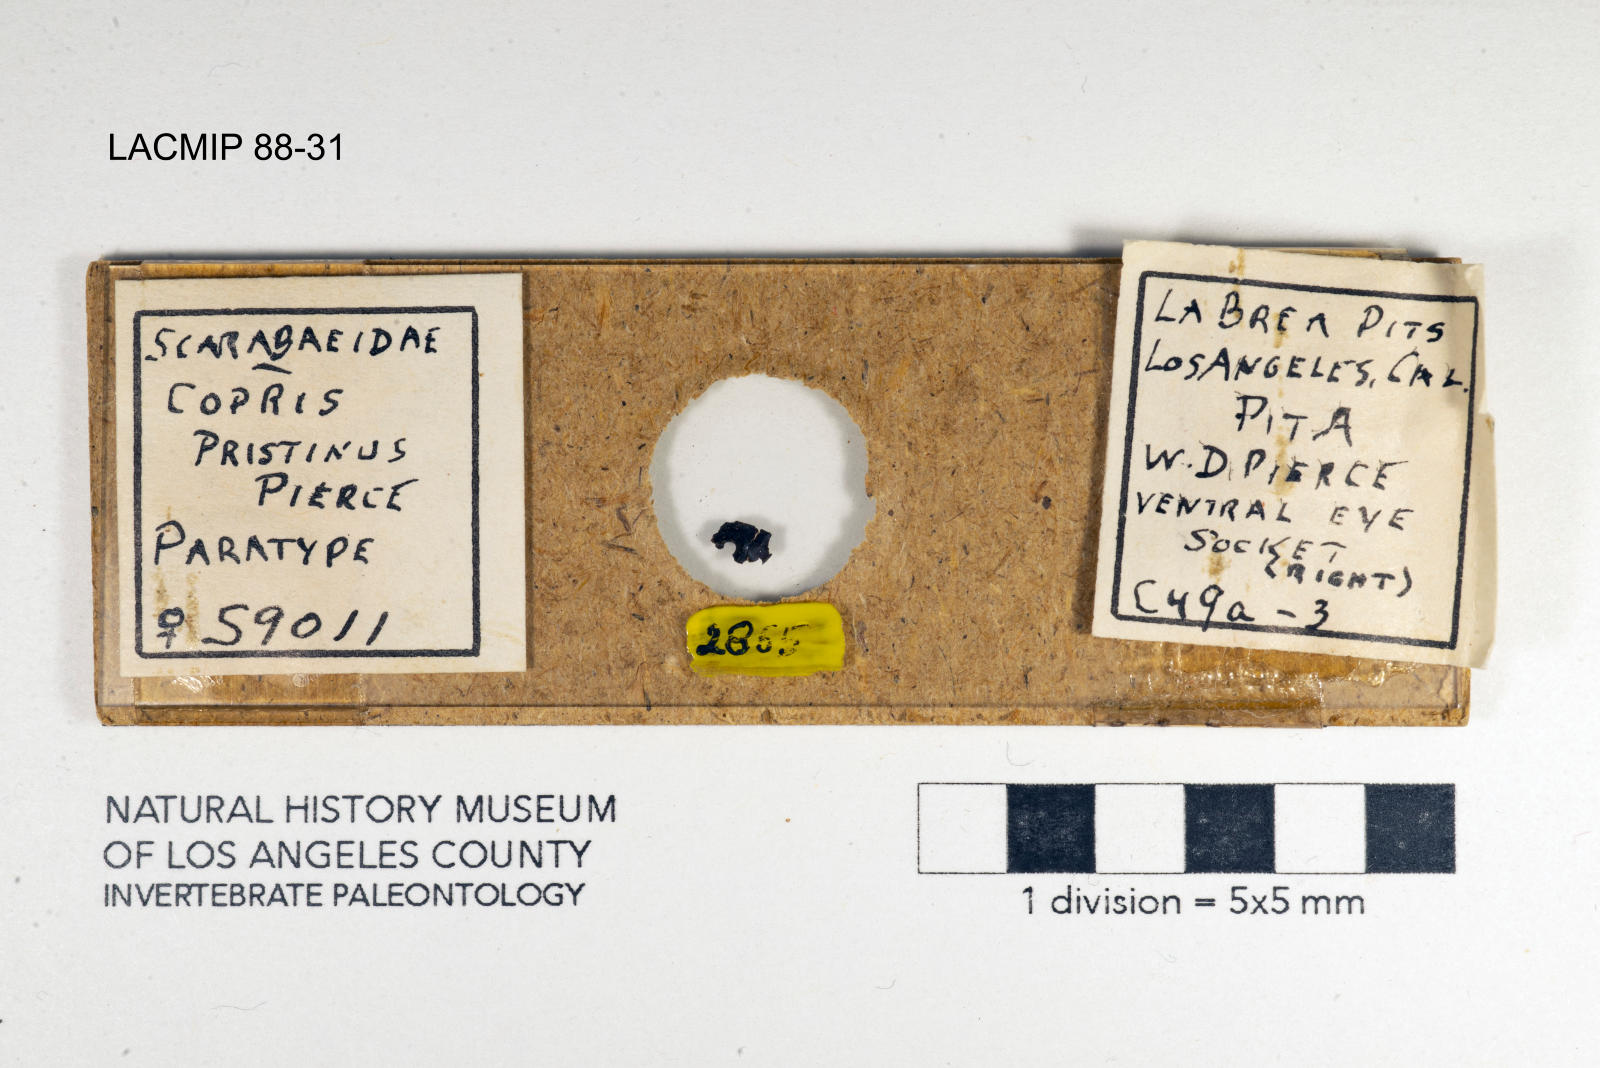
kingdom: Animalia
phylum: Arthropoda
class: Insecta
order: Coleoptera
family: Scarabaeidae
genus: Copris
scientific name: Copris pristinus
